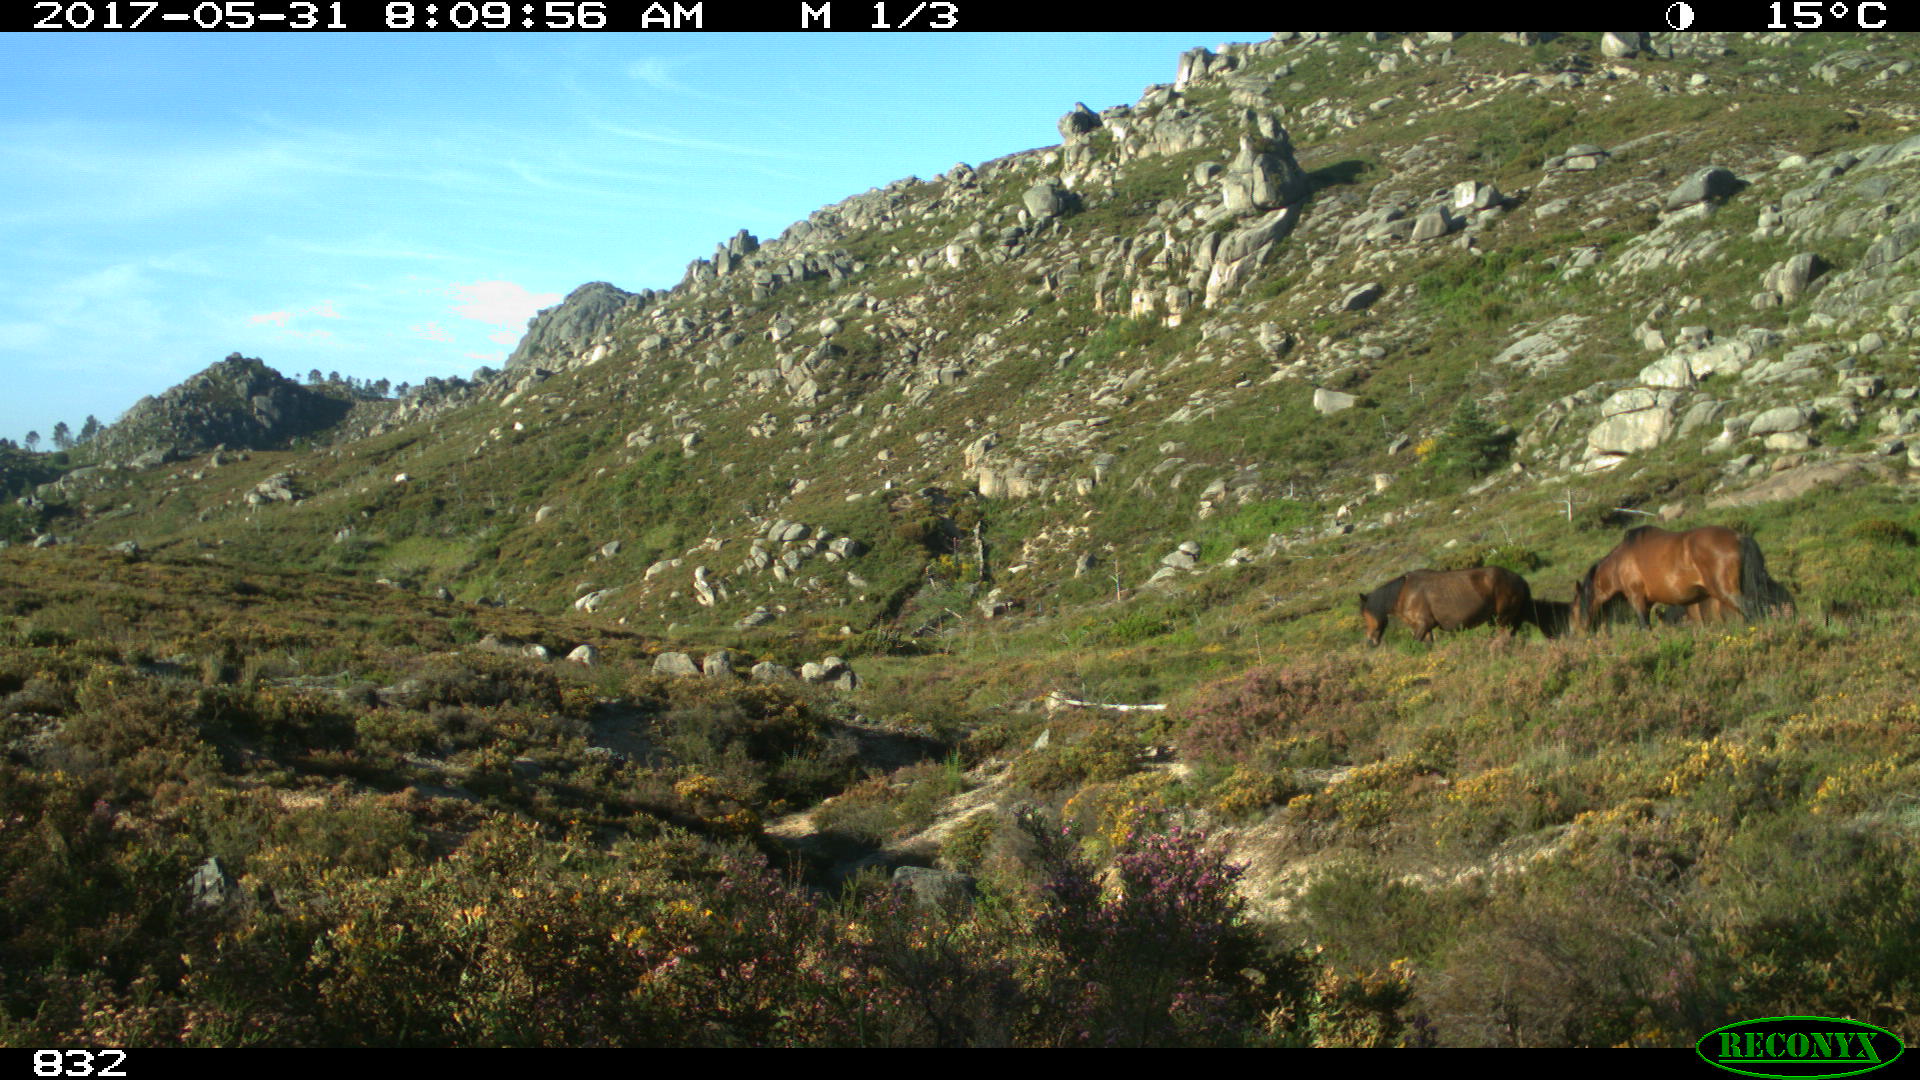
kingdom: Animalia
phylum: Chordata
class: Mammalia
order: Perissodactyla
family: Equidae
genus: Equus
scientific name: Equus caballus
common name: Horse
